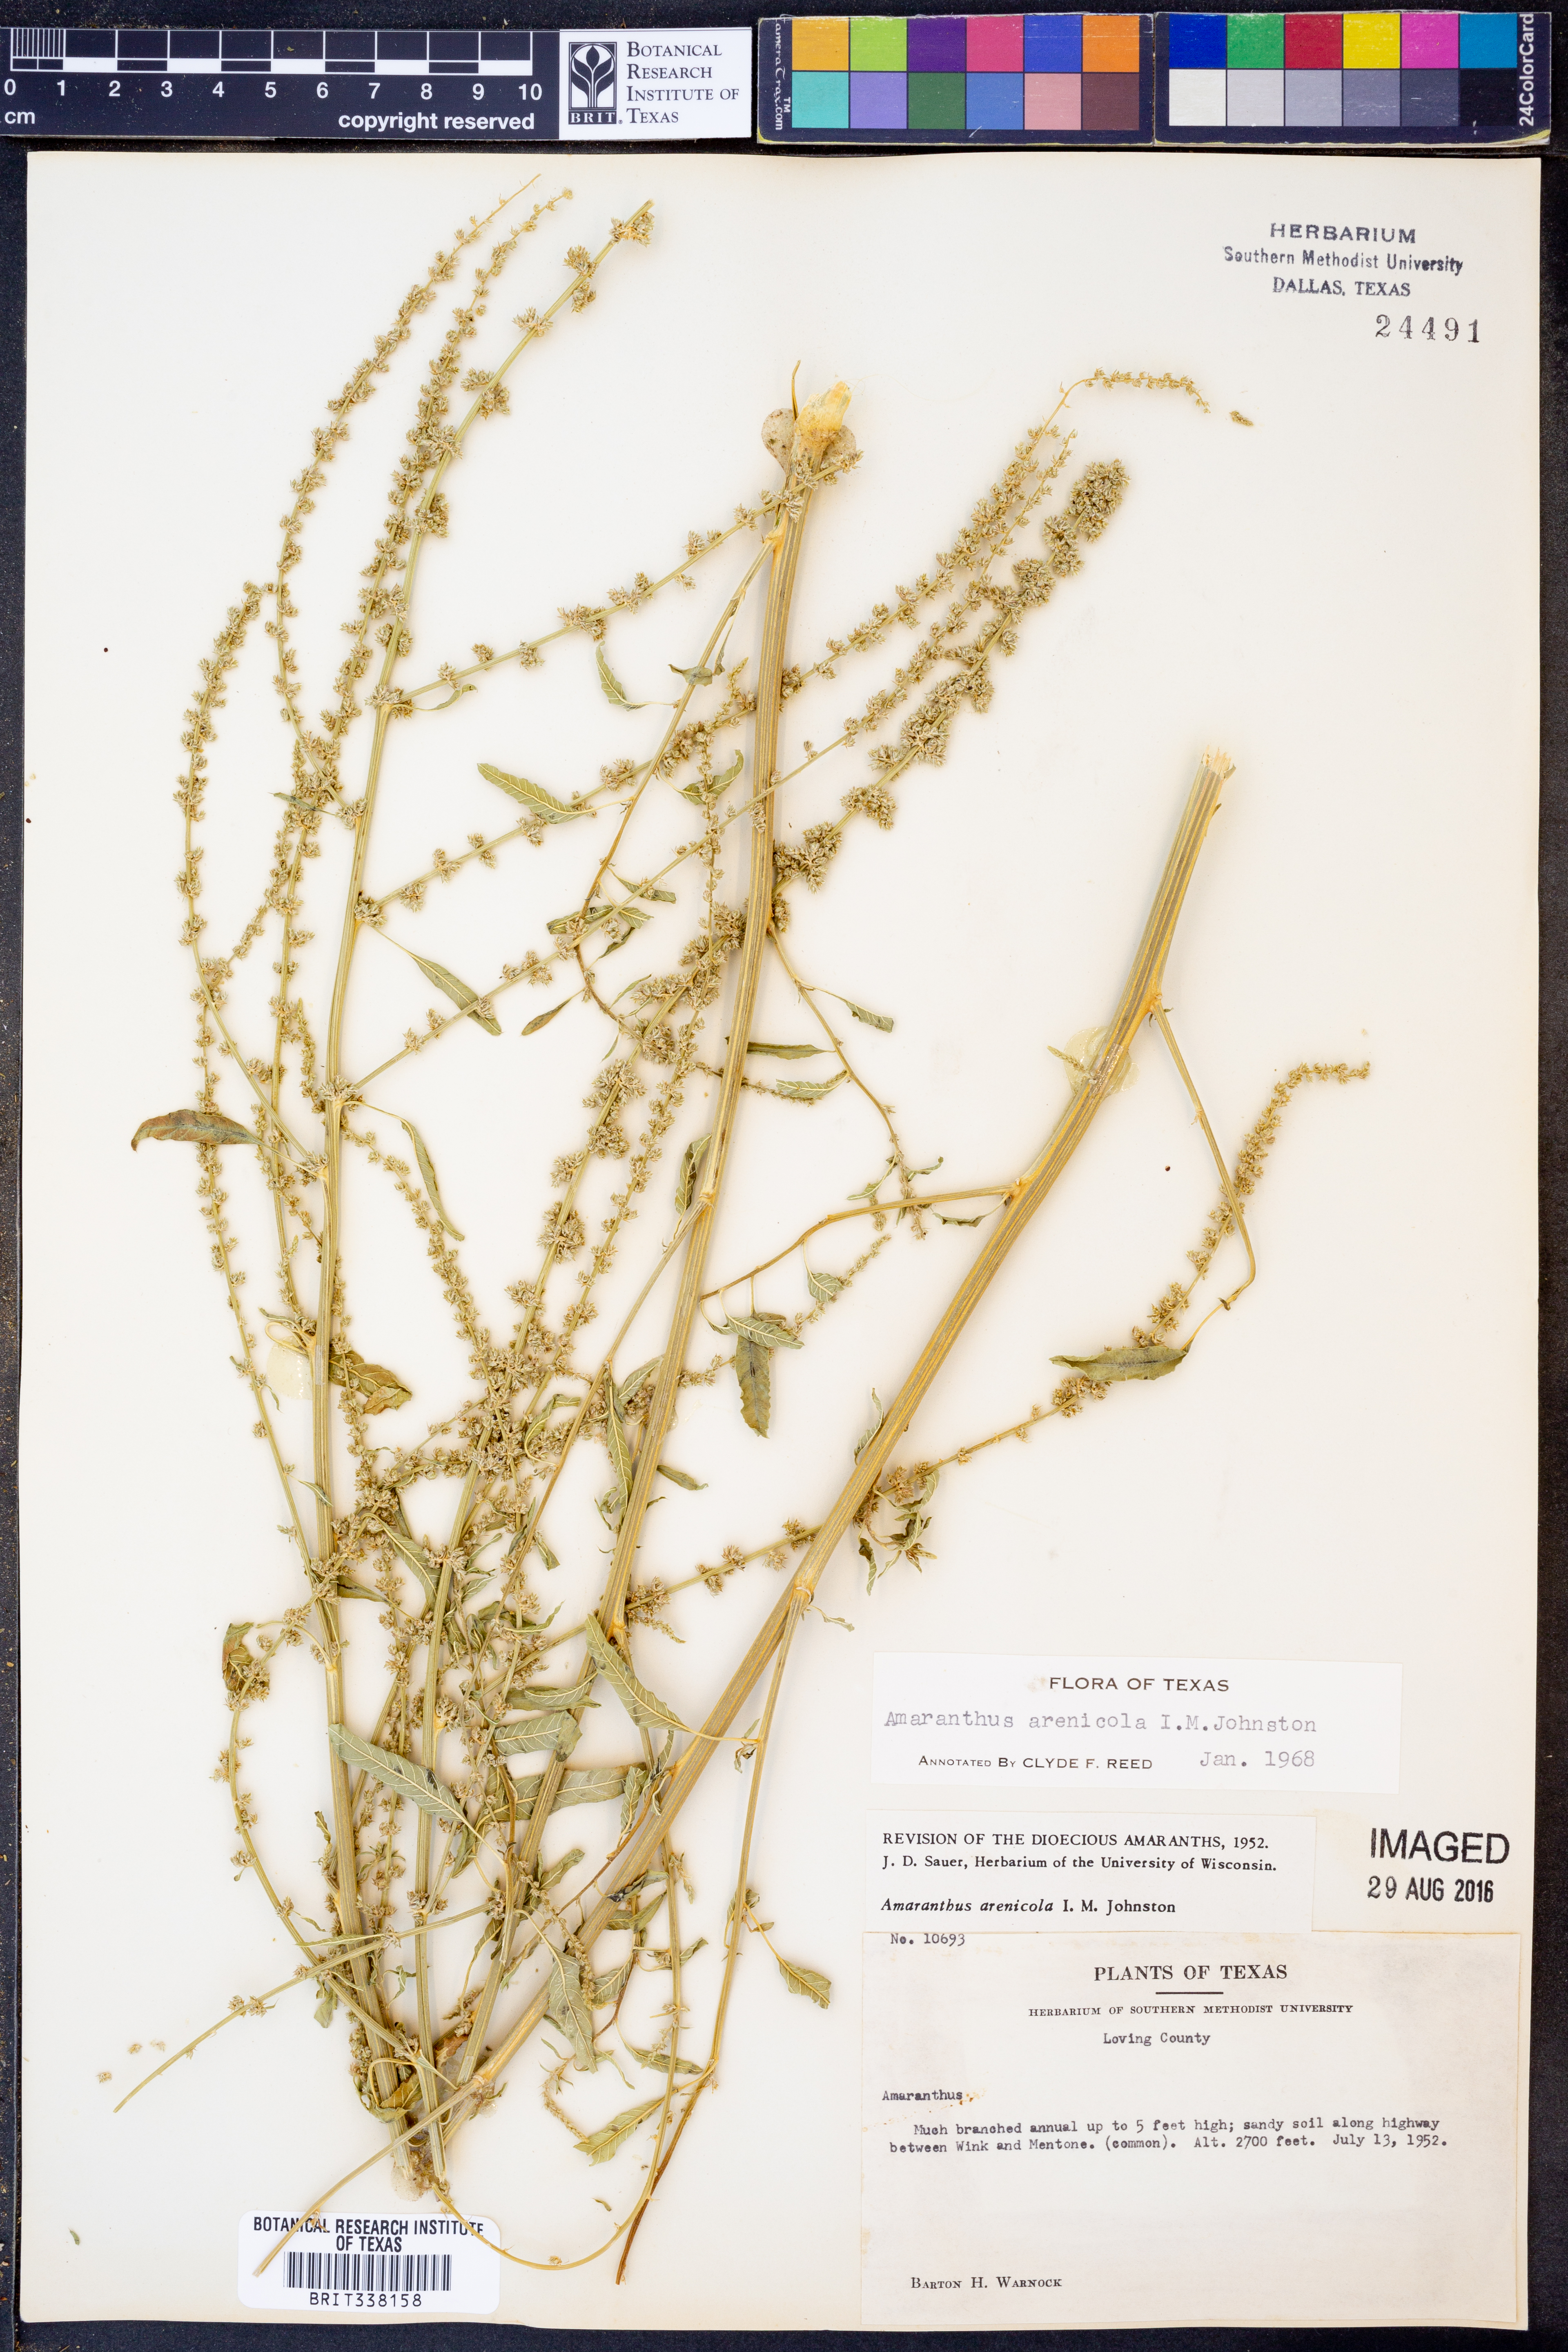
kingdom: Plantae
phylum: Tracheophyta
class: Magnoliopsida
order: Caryophyllales
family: Amaranthaceae
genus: Amaranthus
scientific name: Amaranthus arenicola
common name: Sandhills amaranth
